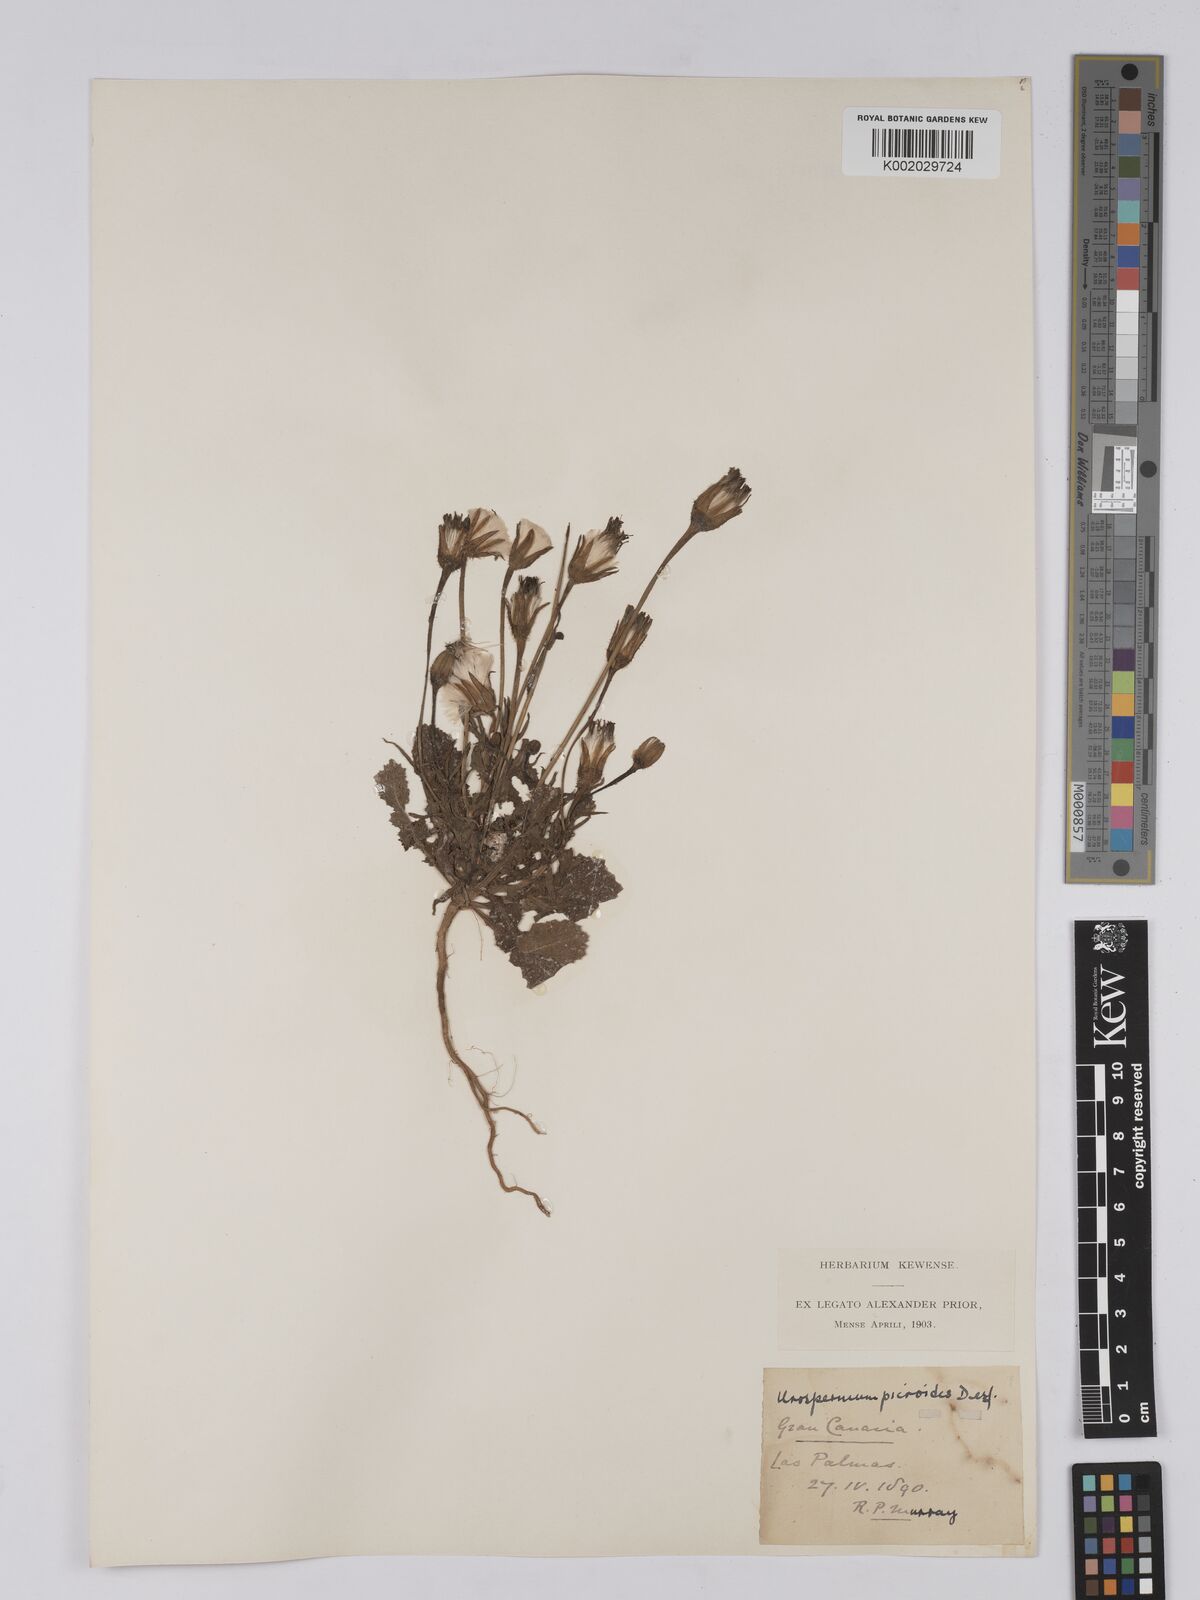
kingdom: Plantae
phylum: Tracheophyta
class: Magnoliopsida
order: Asterales
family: Asteraceae
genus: Urospermum
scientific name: Urospermum picroides
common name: False hawkbit
